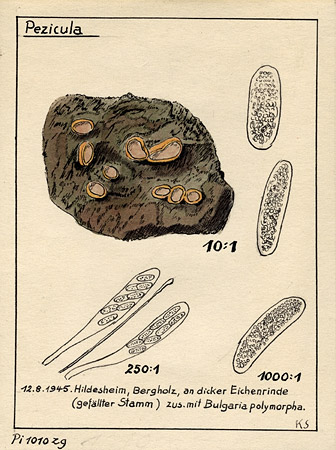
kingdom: Fungi
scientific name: Fungi
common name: Fungi
